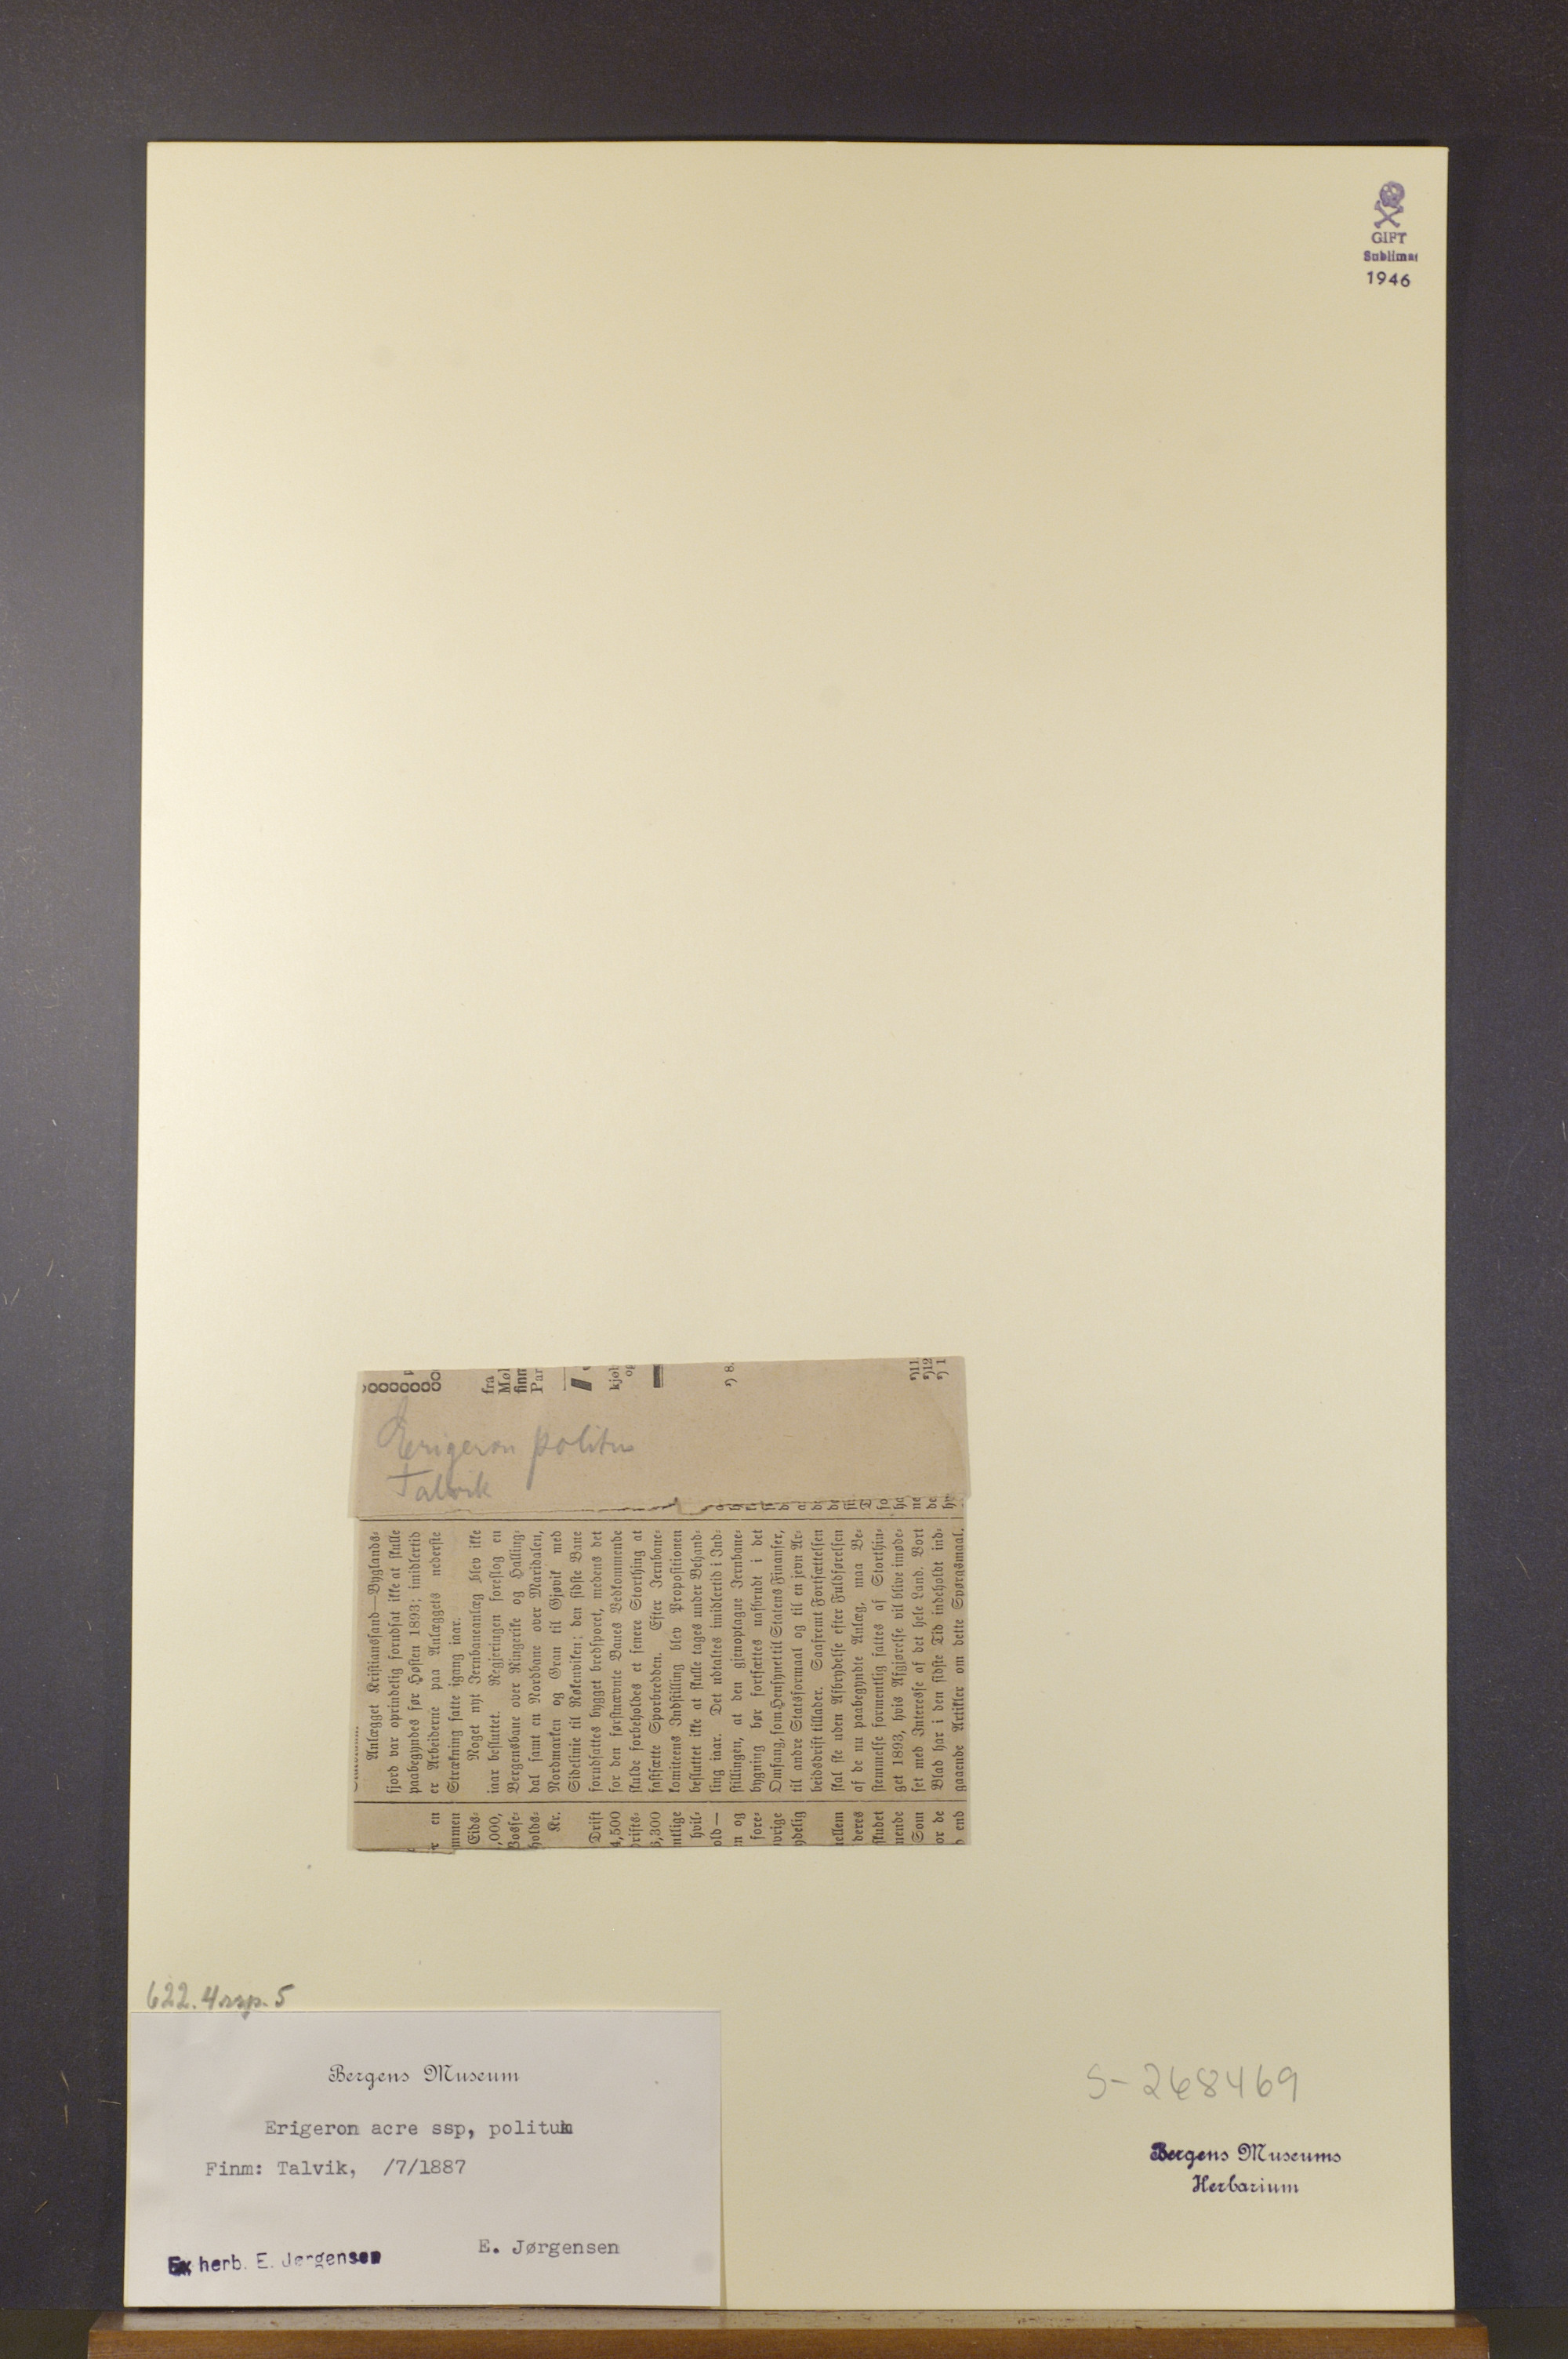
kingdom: Plantae
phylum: Tracheophyta
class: Magnoliopsida
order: Asterales
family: Asteraceae
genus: Erigeron
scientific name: Erigeron politus
